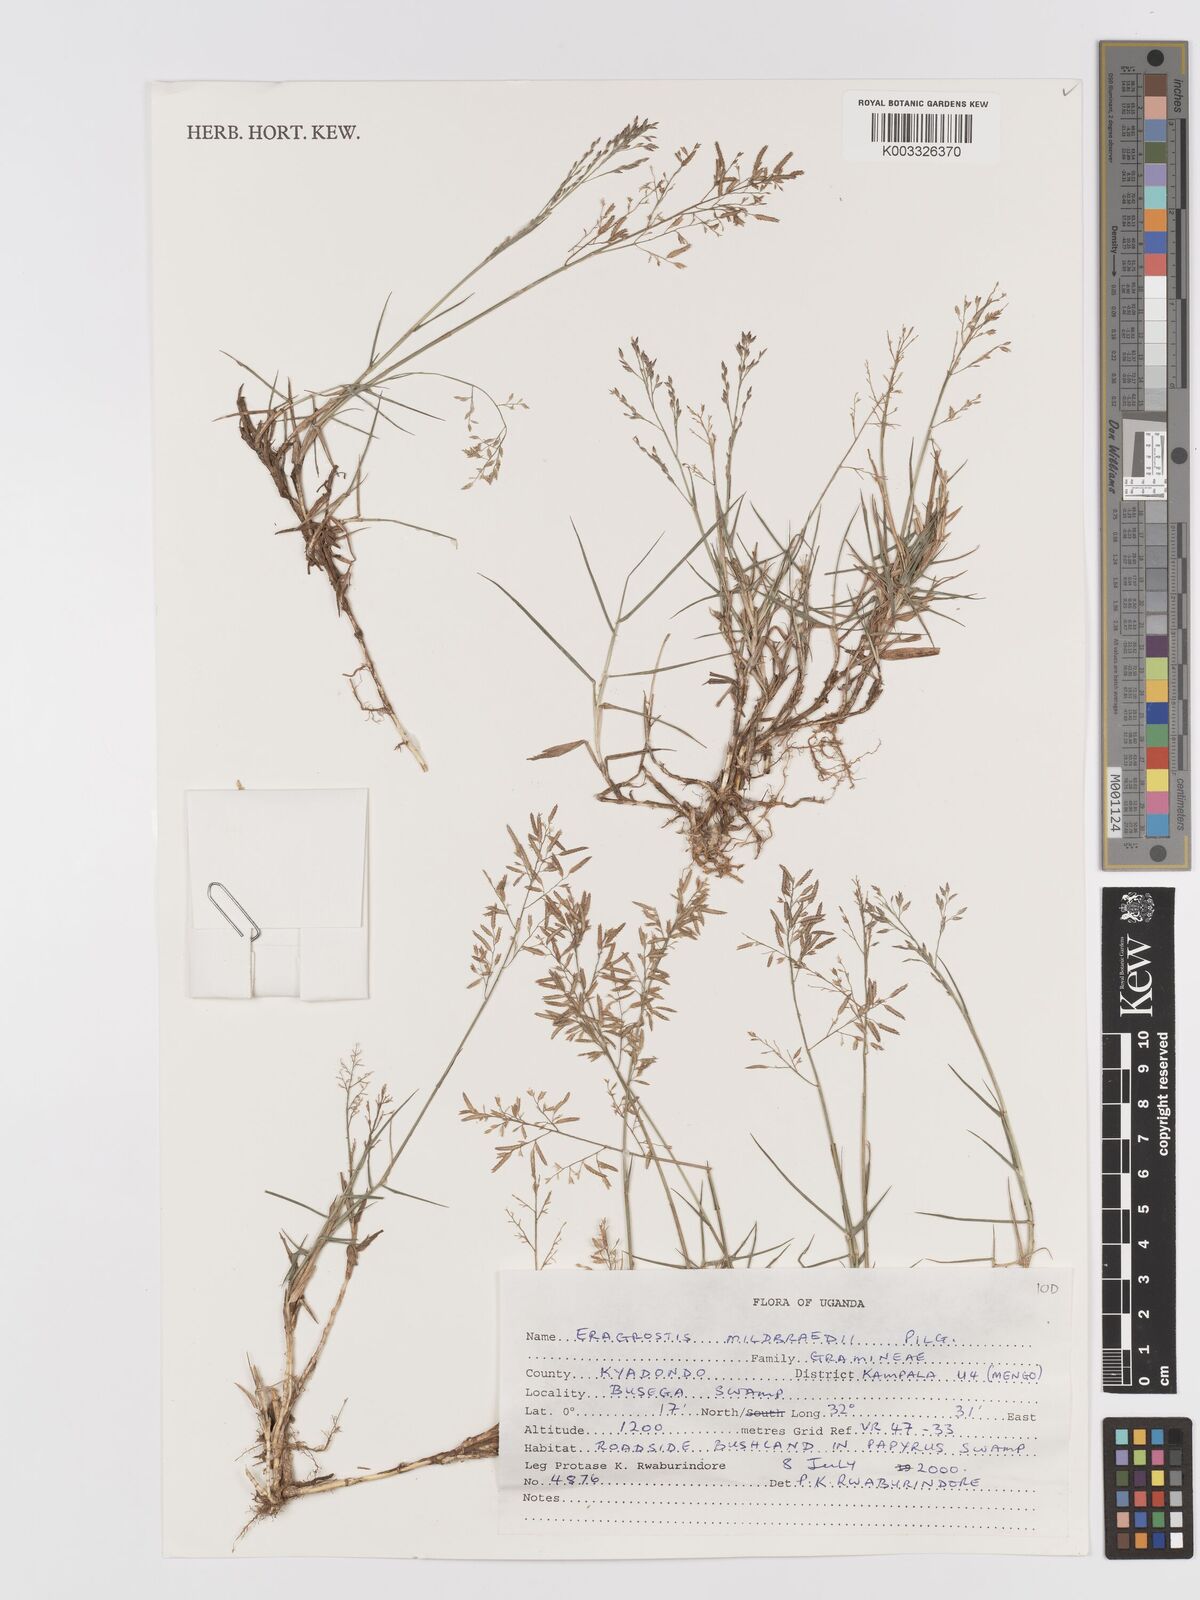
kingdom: Plantae
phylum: Tracheophyta
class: Liliopsida
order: Poales
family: Poaceae
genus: Eragrostis
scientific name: Eragrostis mildbraedii
